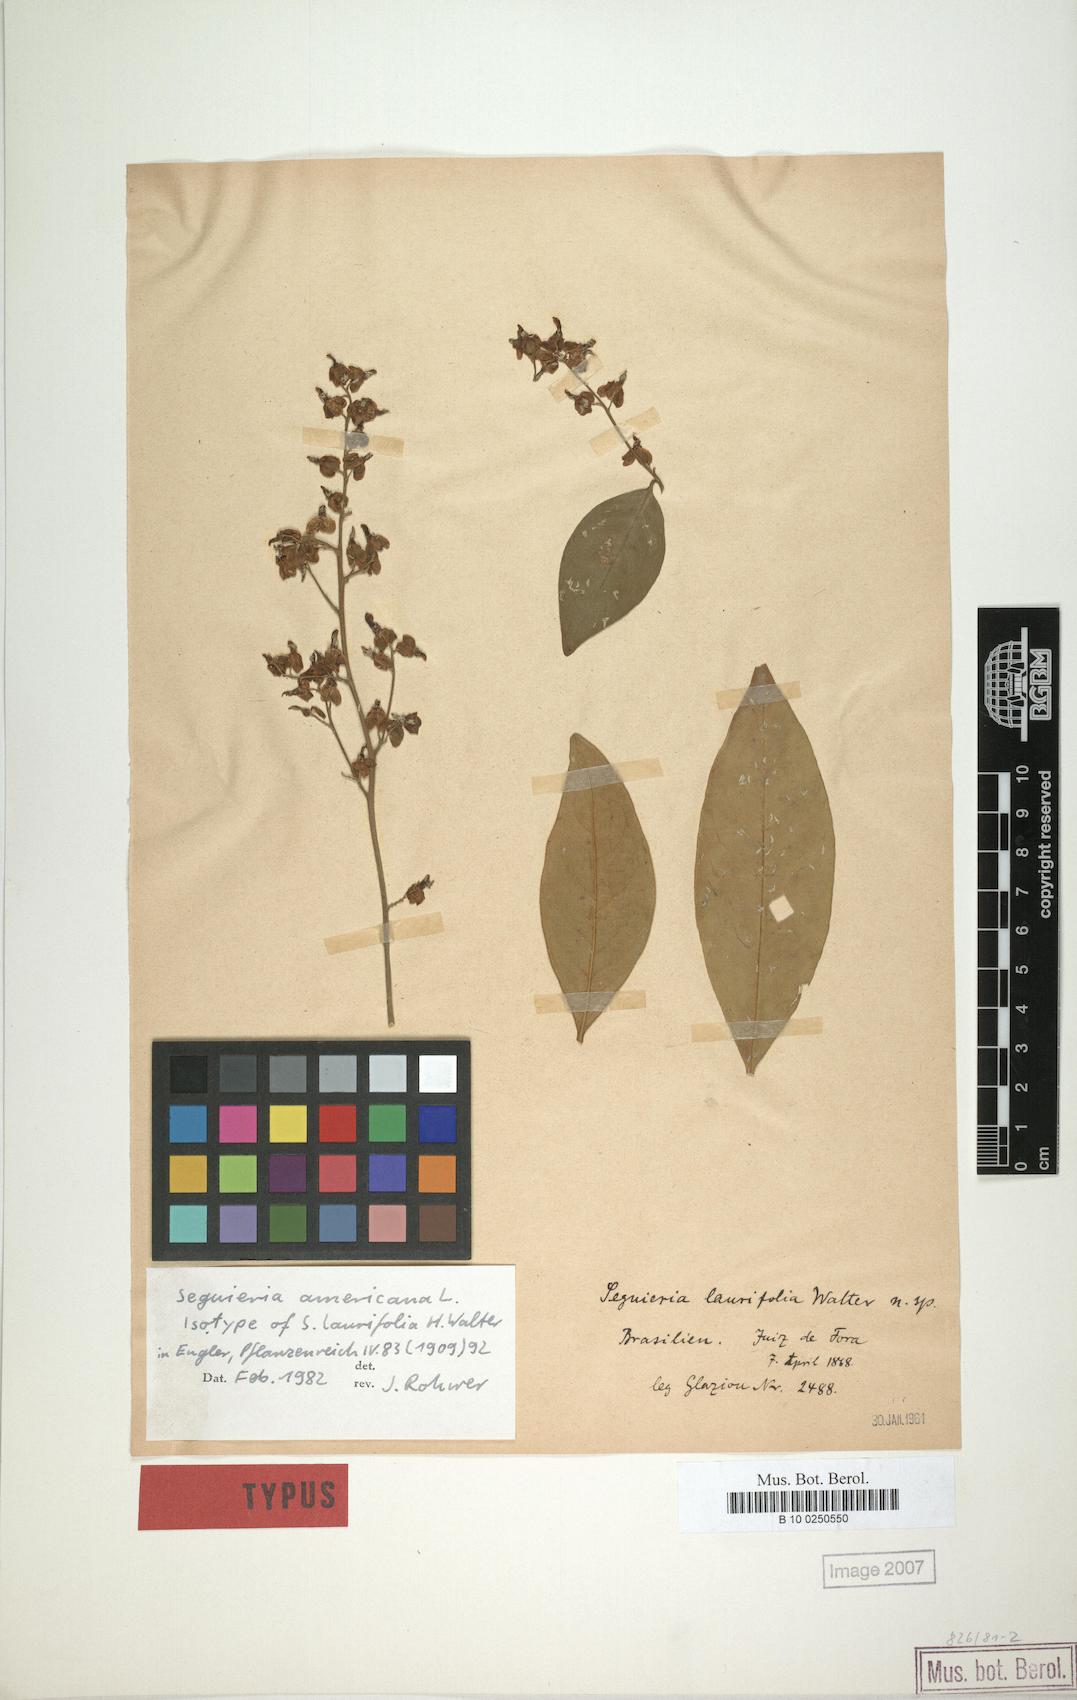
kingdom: Plantae
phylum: Tracheophyta
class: Magnoliopsida
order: Caryophyllales
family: Phytolaccaceae
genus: Seguieria
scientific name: Seguieria americana
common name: American seguieria
